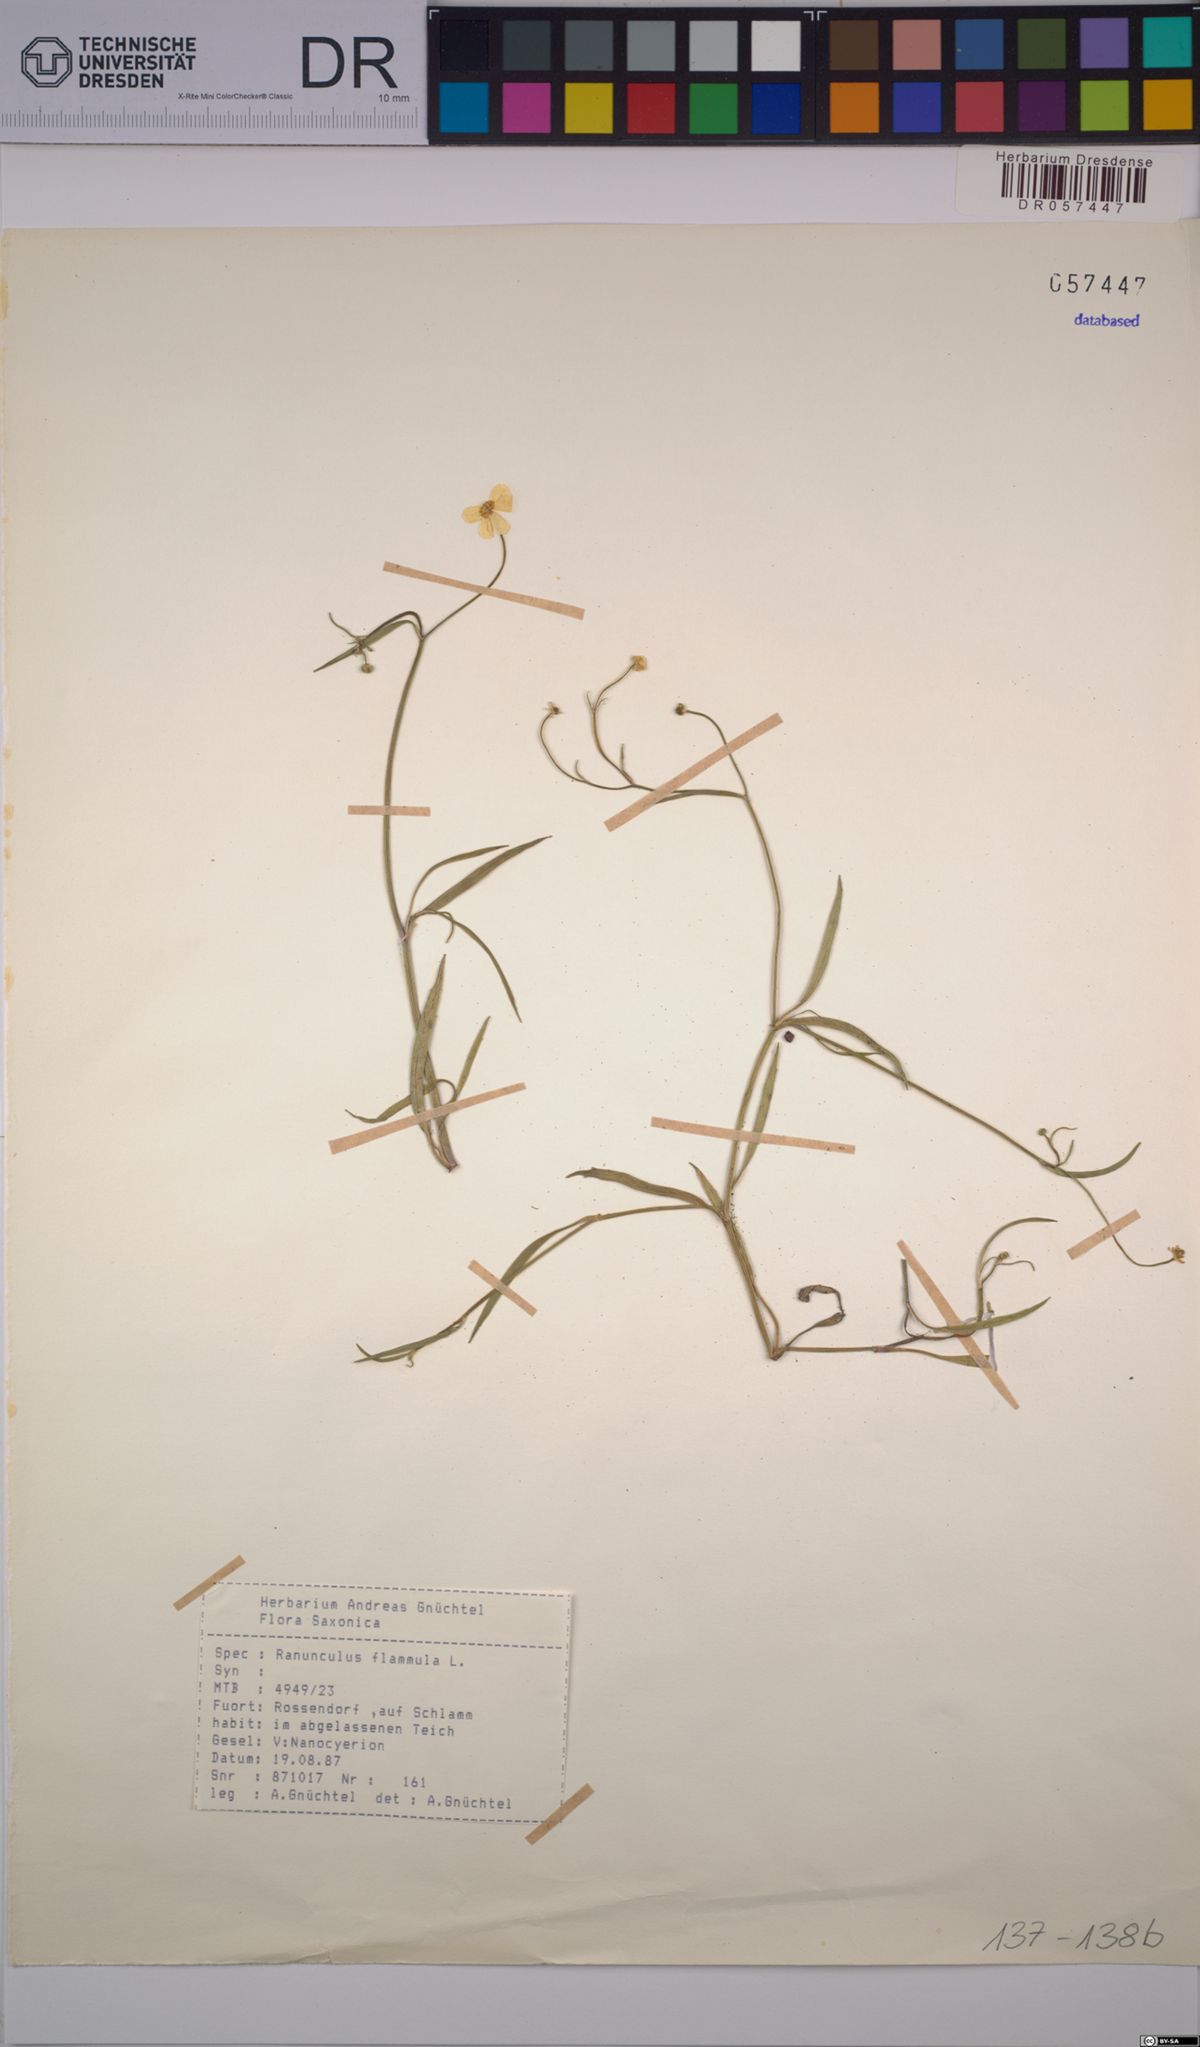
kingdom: Plantae
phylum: Tracheophyta
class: Magnoliopsida
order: Ranunculales
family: Ranunculaceae
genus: Ranunculus
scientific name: Ranunculus flammula
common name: Lesser spearwort
